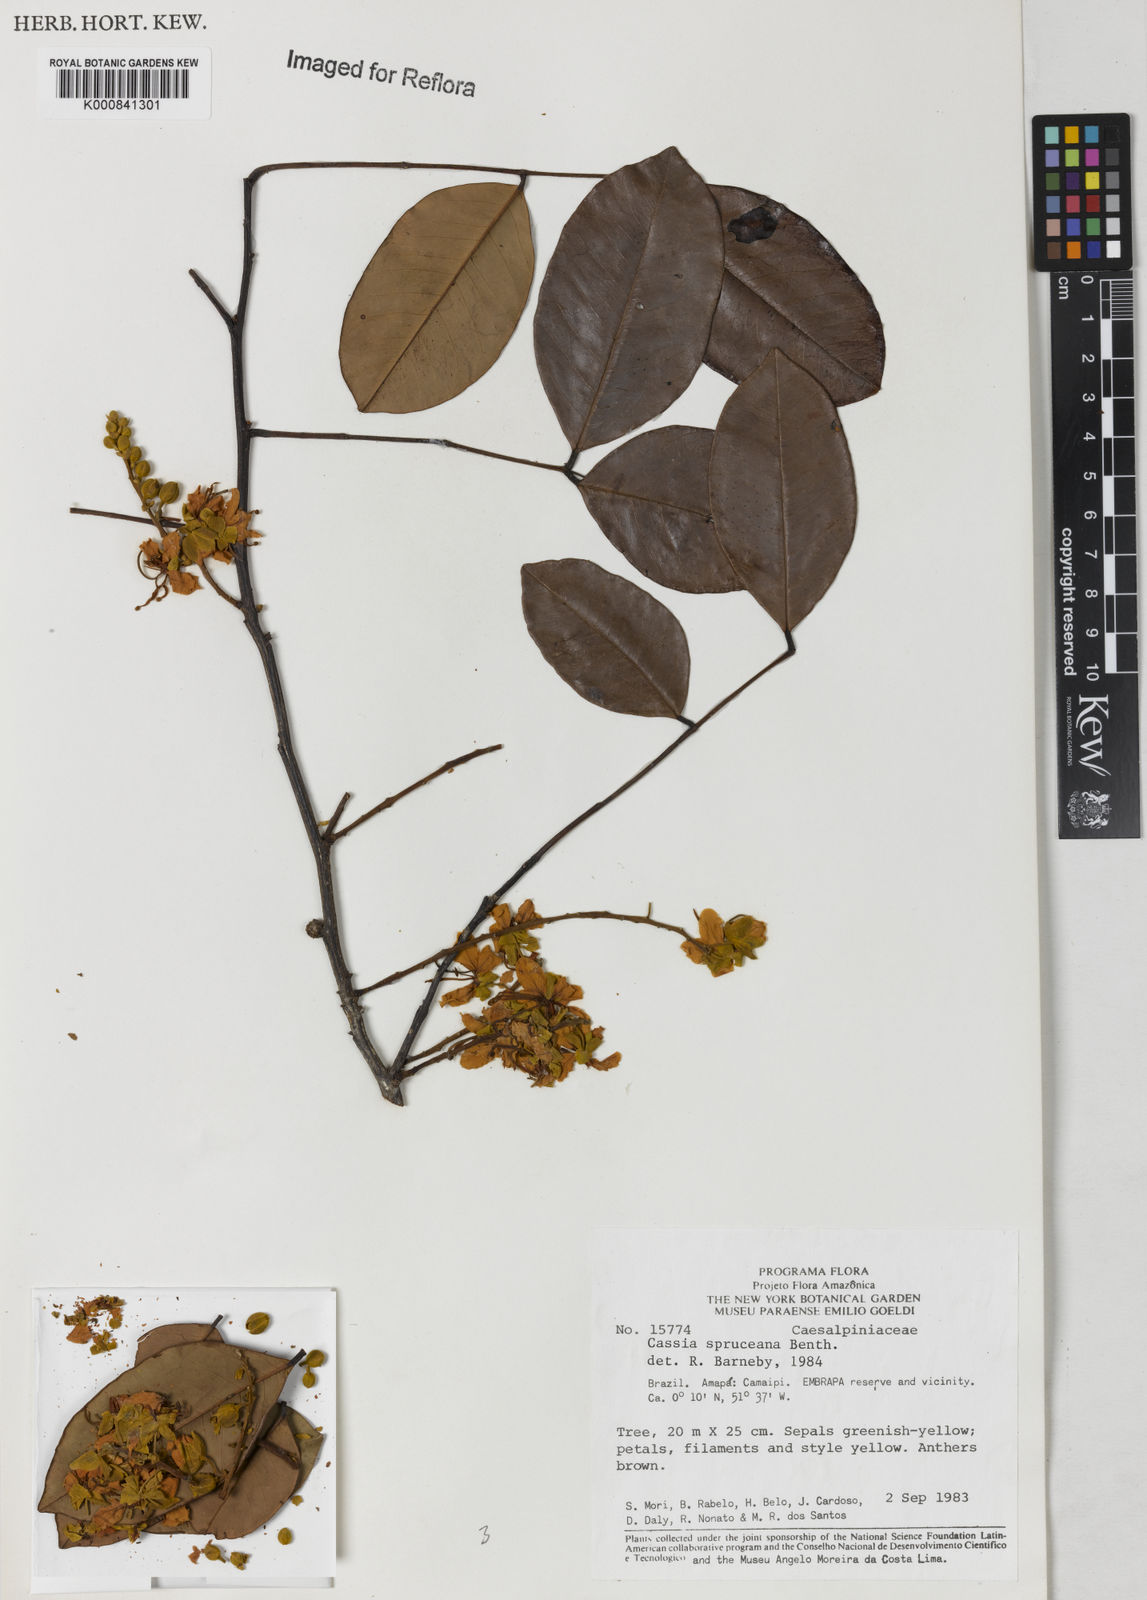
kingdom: Plantae
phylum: Tracheophyta
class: Magnoliopsida
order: Fabales
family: Fabaceae
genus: Cassia
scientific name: Cassia spruceana
